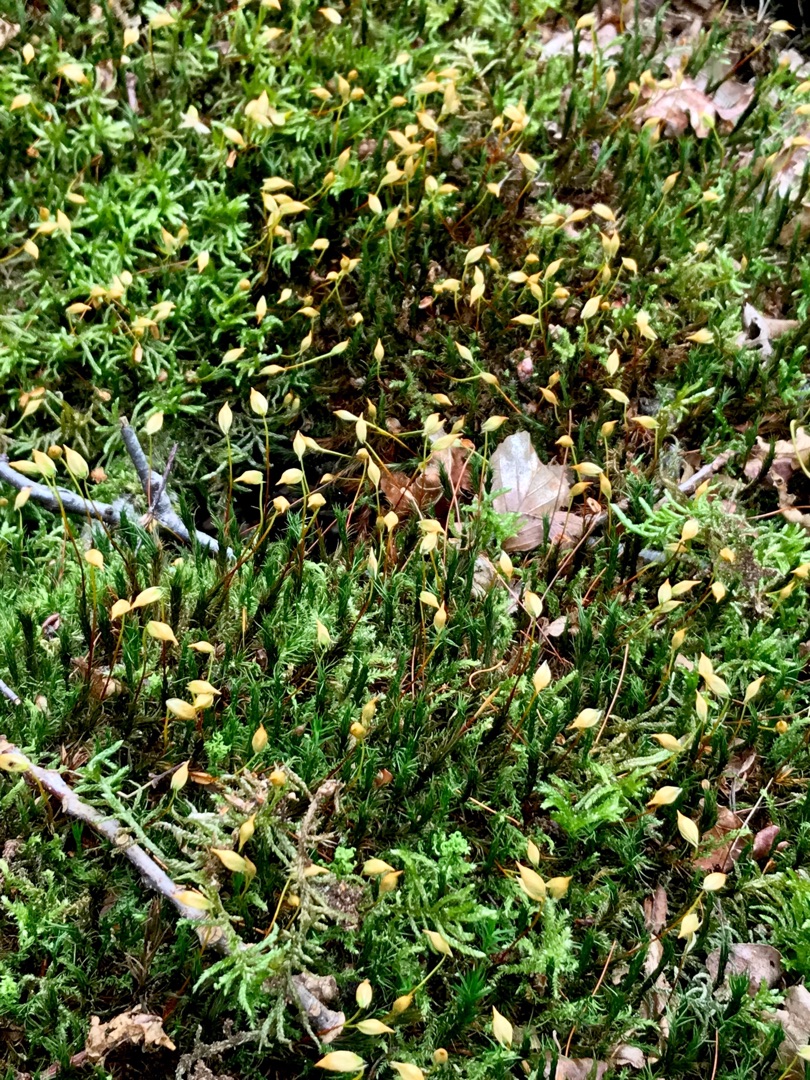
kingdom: Plantae
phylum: Bryophyta
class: Polytrichopsida
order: Polytrichales
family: Polytrichaceae
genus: Polytrichum
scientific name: Polytrichum formosum
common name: Skov-jomfruhår
